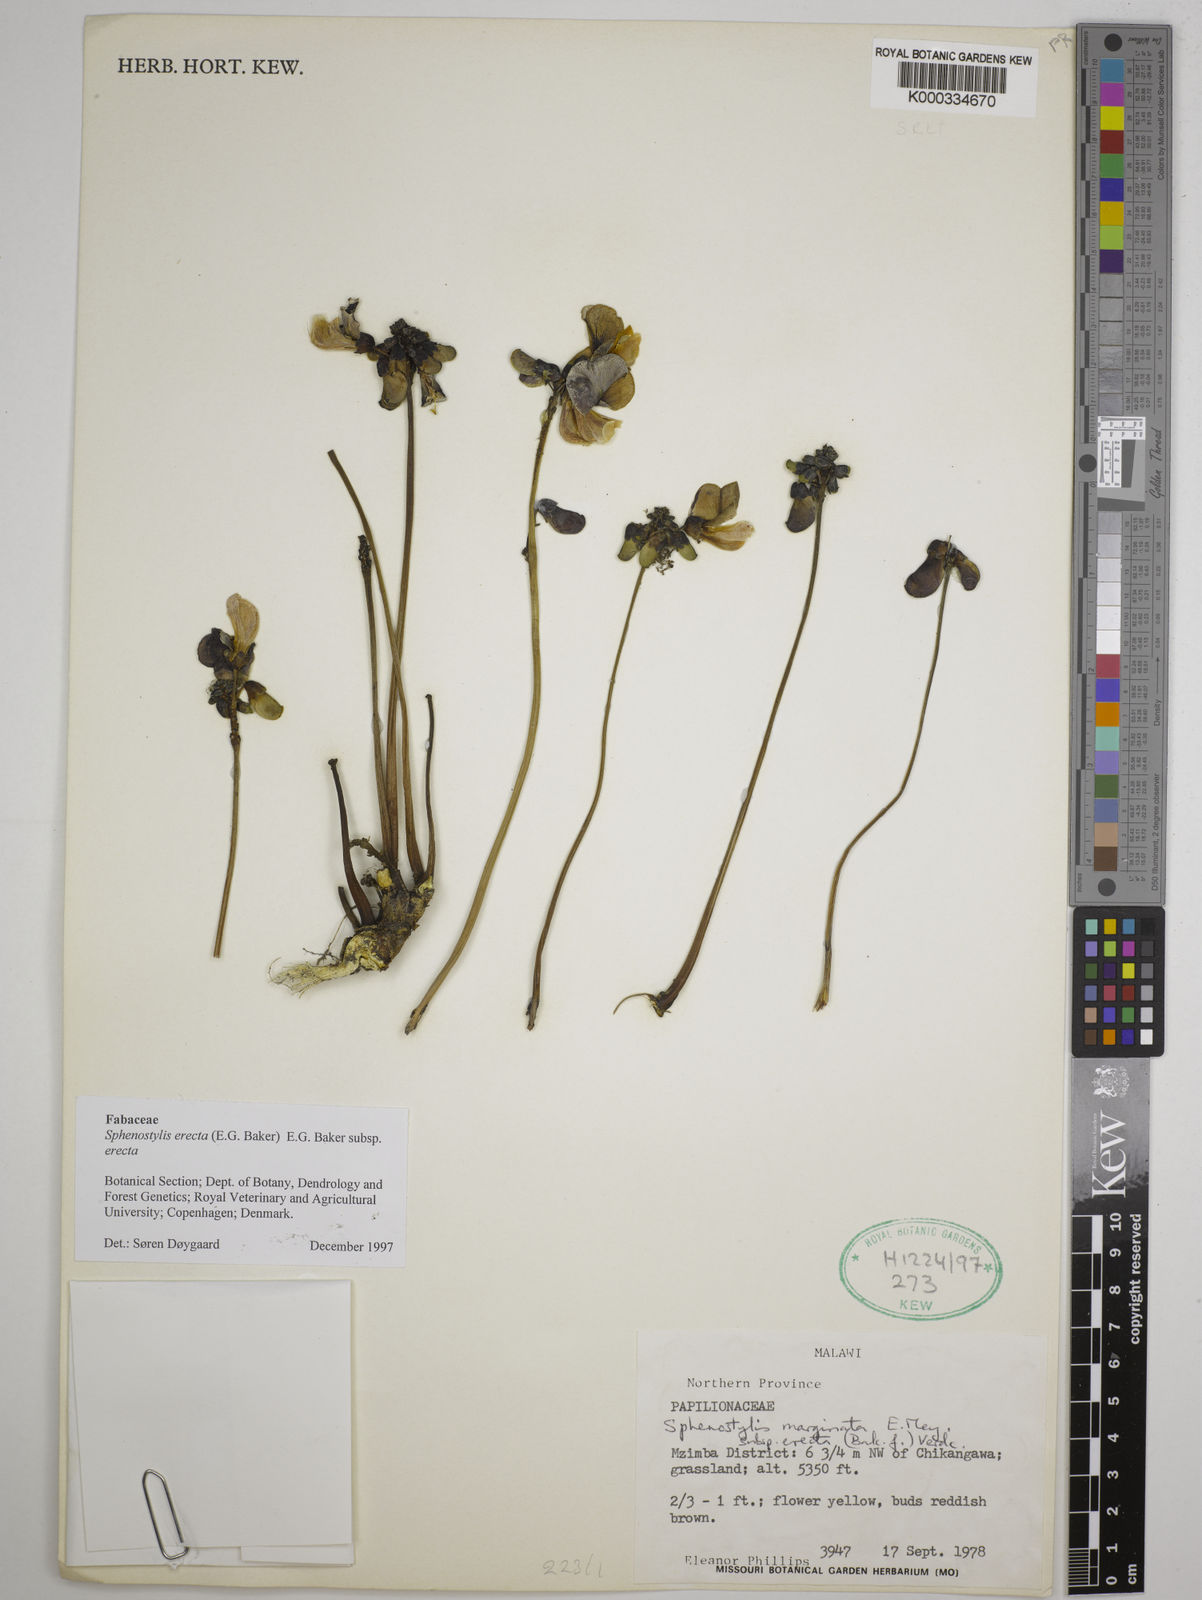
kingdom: Plantae
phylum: Tracheophyta
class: Magnoliopsida
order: Fabales
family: Fabaceae
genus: Sphenostylis
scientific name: Sphenostylis erecta
